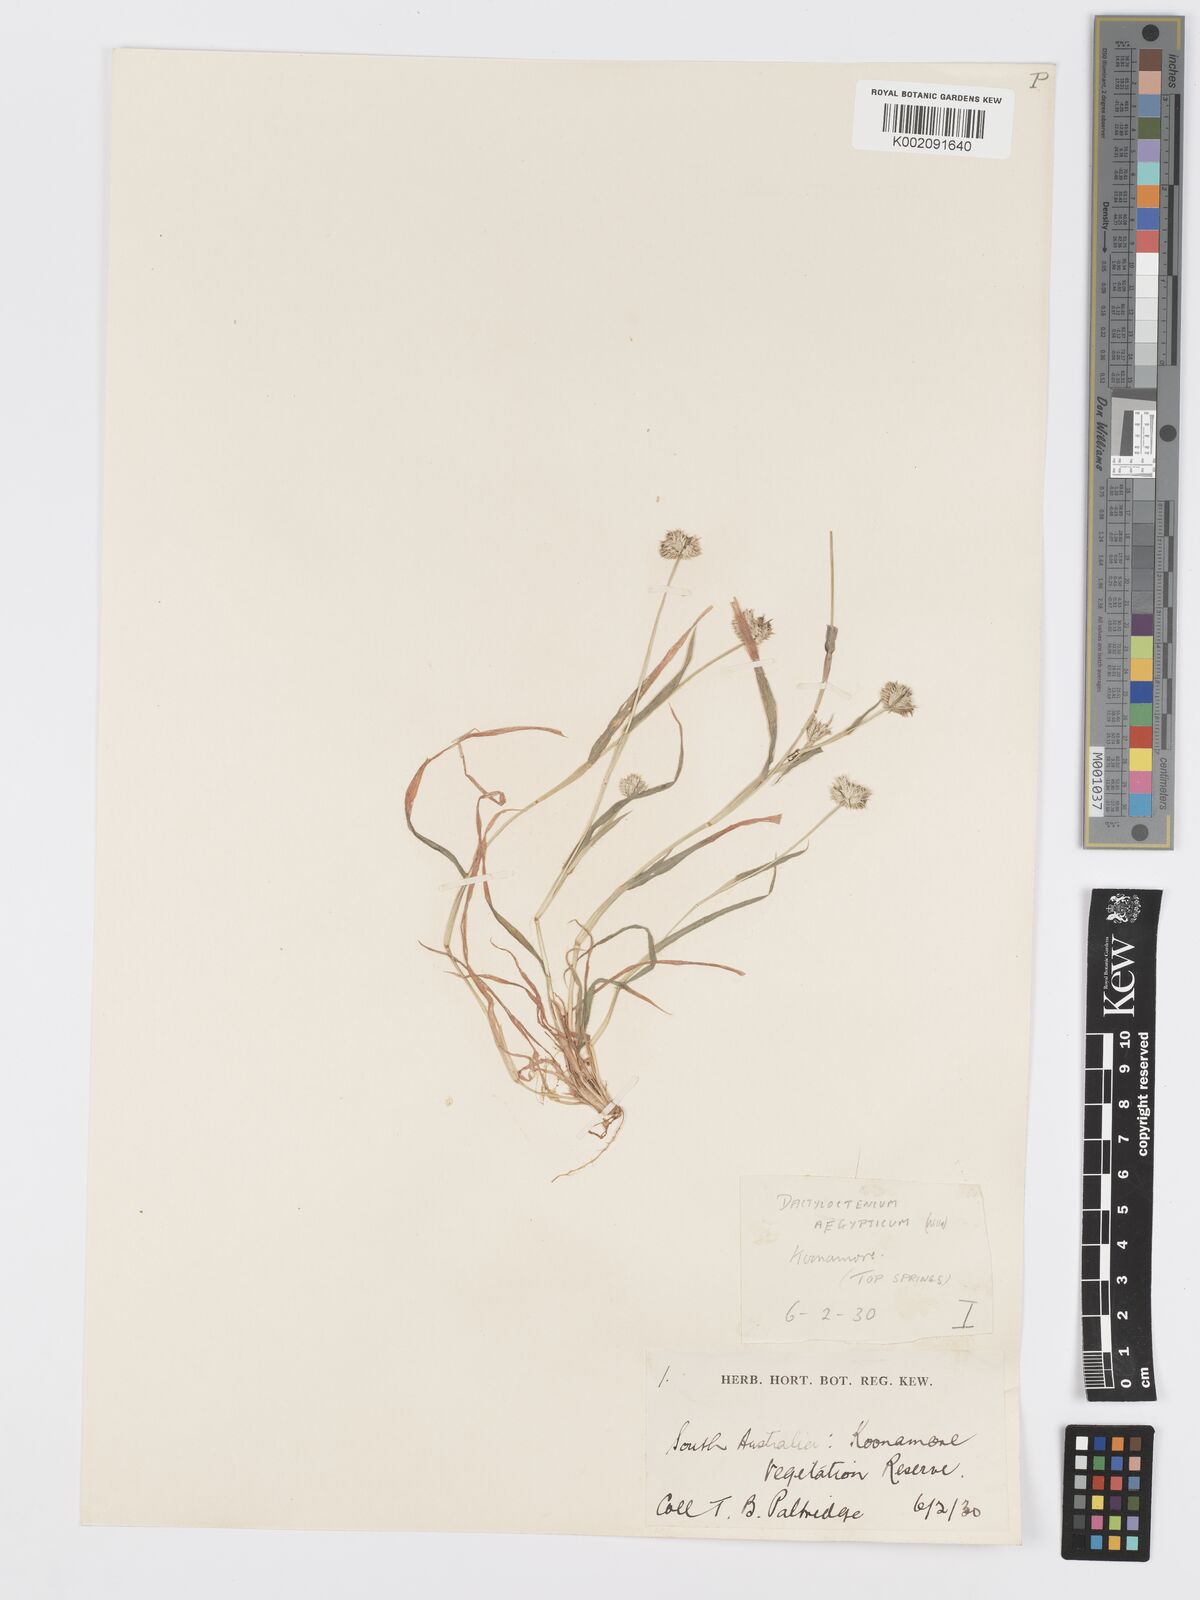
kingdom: Plantae
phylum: Tracheophyta
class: Liliopsida
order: Poales
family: Poaceae
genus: Dactyloctenium
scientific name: Dactyloctenium radulans
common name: Button-grass
